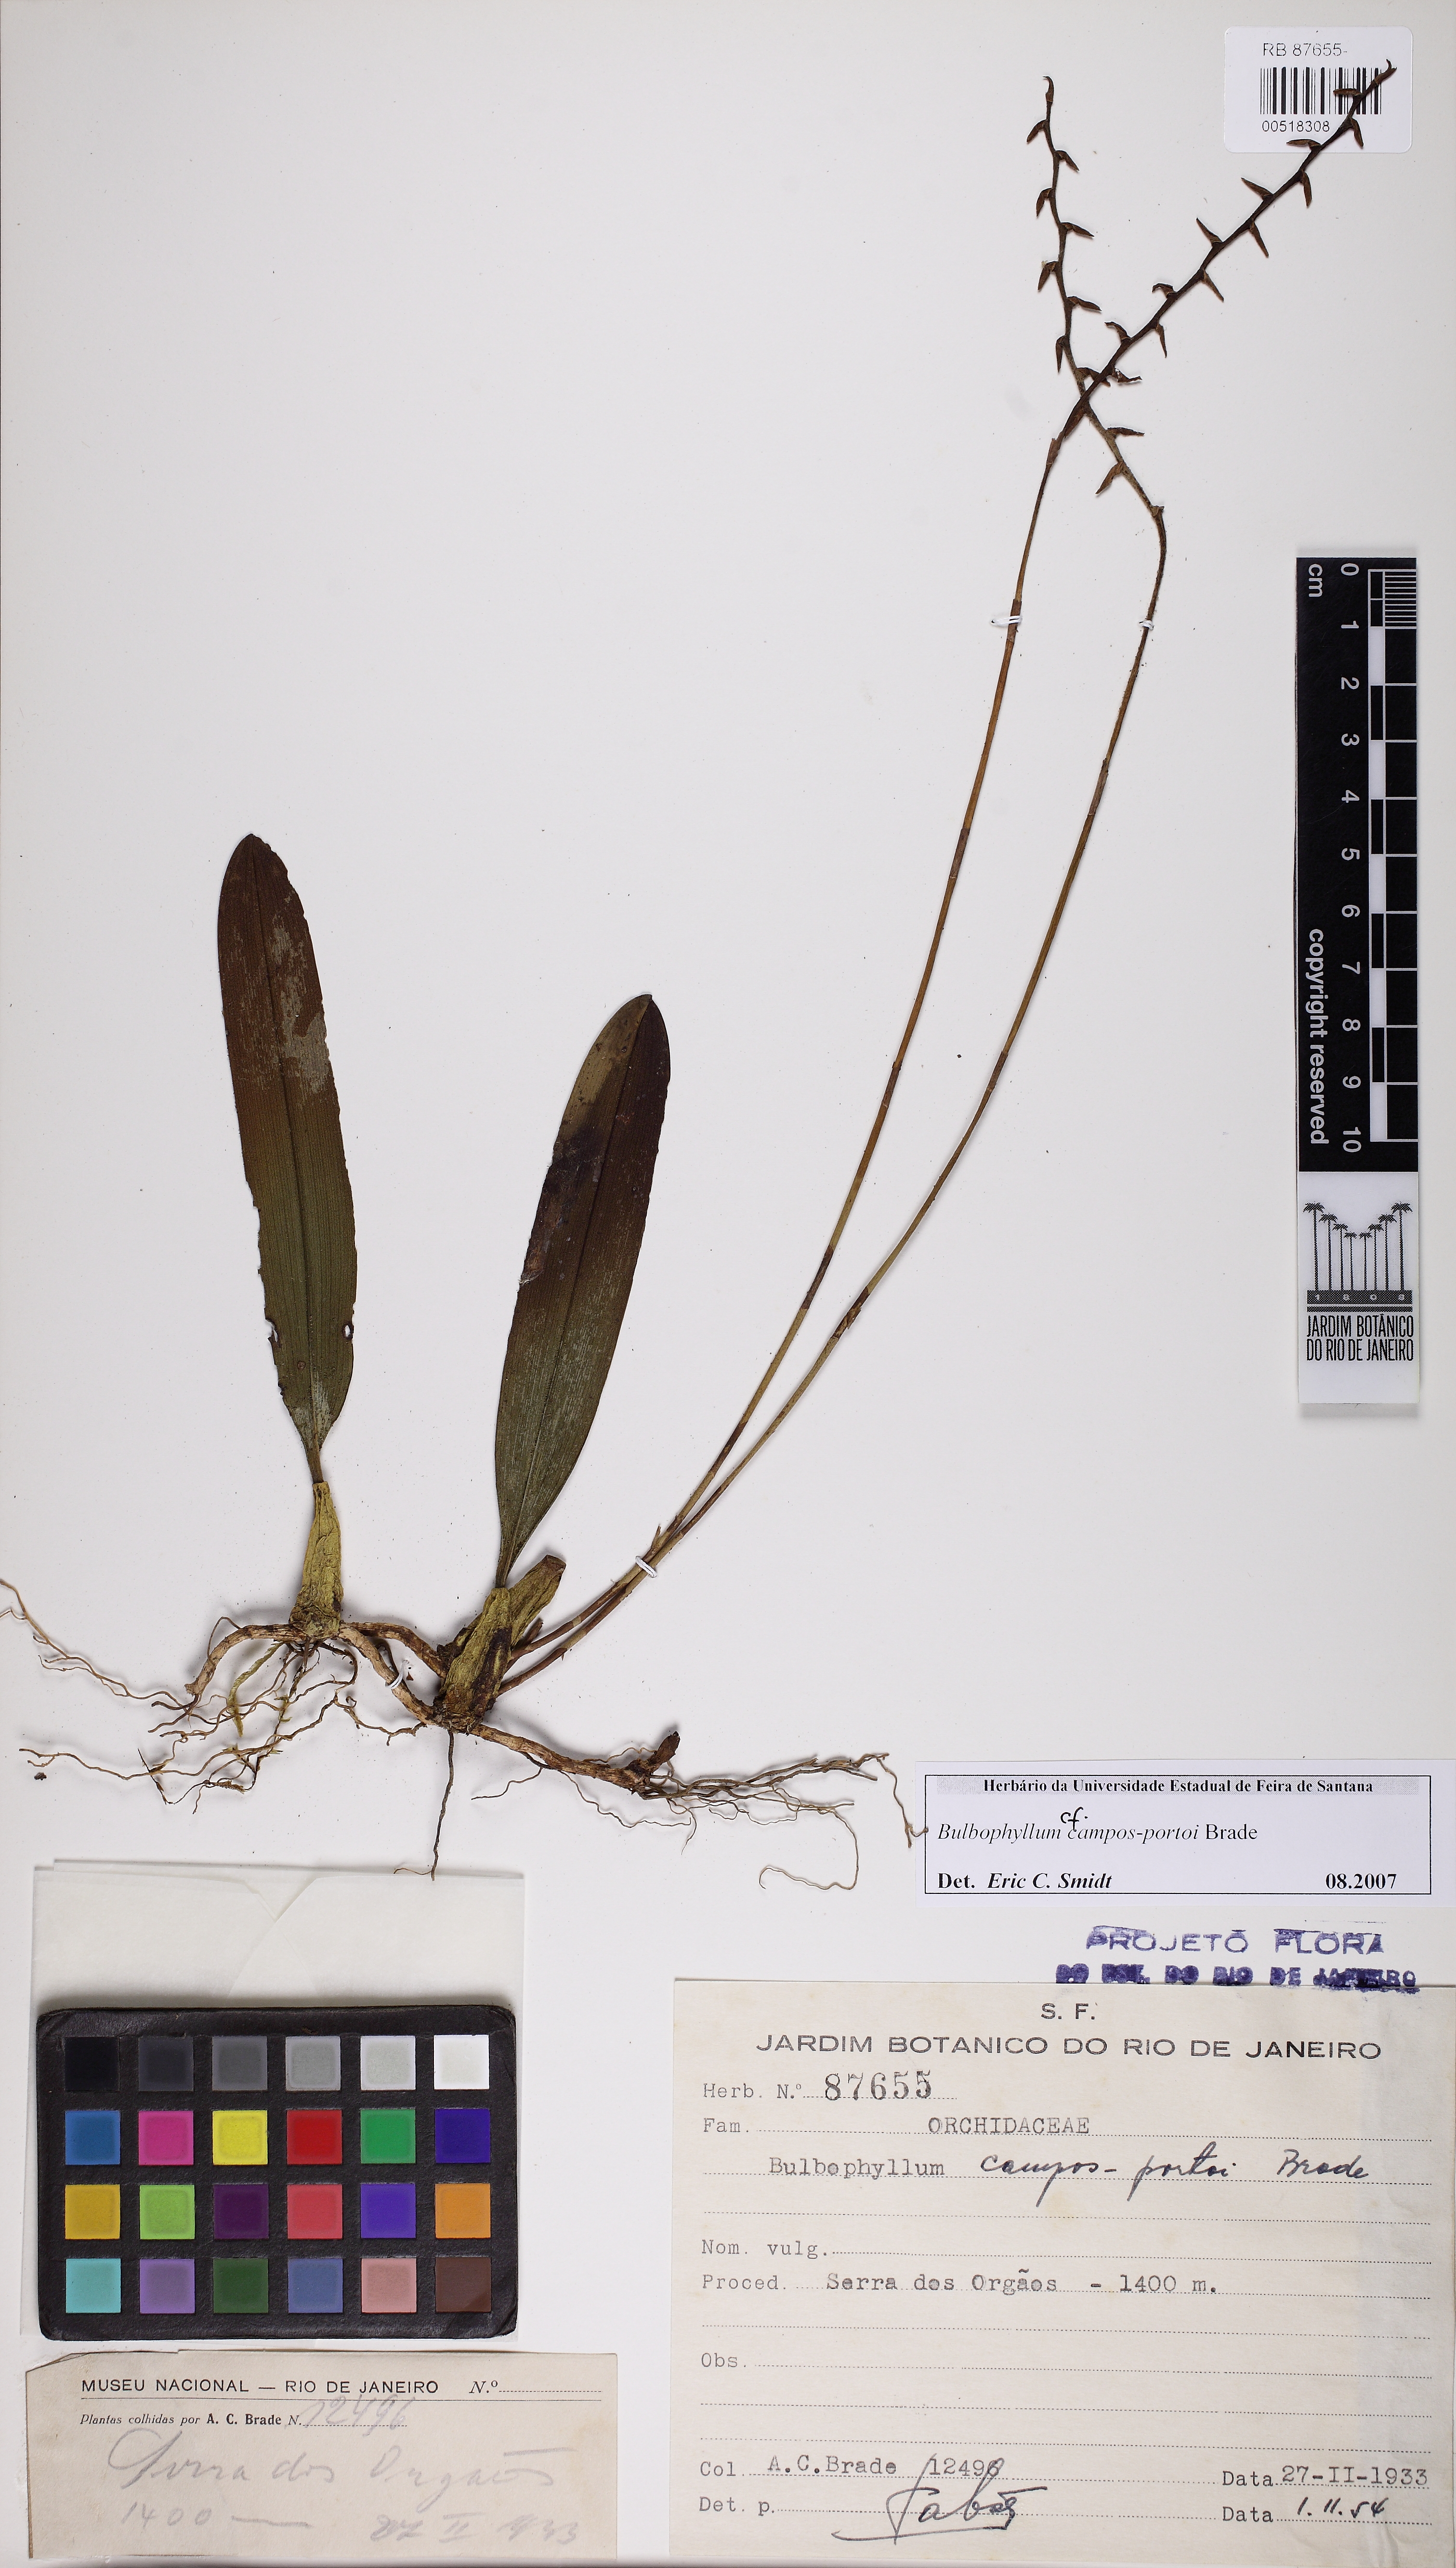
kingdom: Plantae
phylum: Tracheophyta
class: Liliopsida
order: Asparagales
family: Orchidaceae
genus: Bulbophyllum
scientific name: Bulbophyllum campos-portoi
